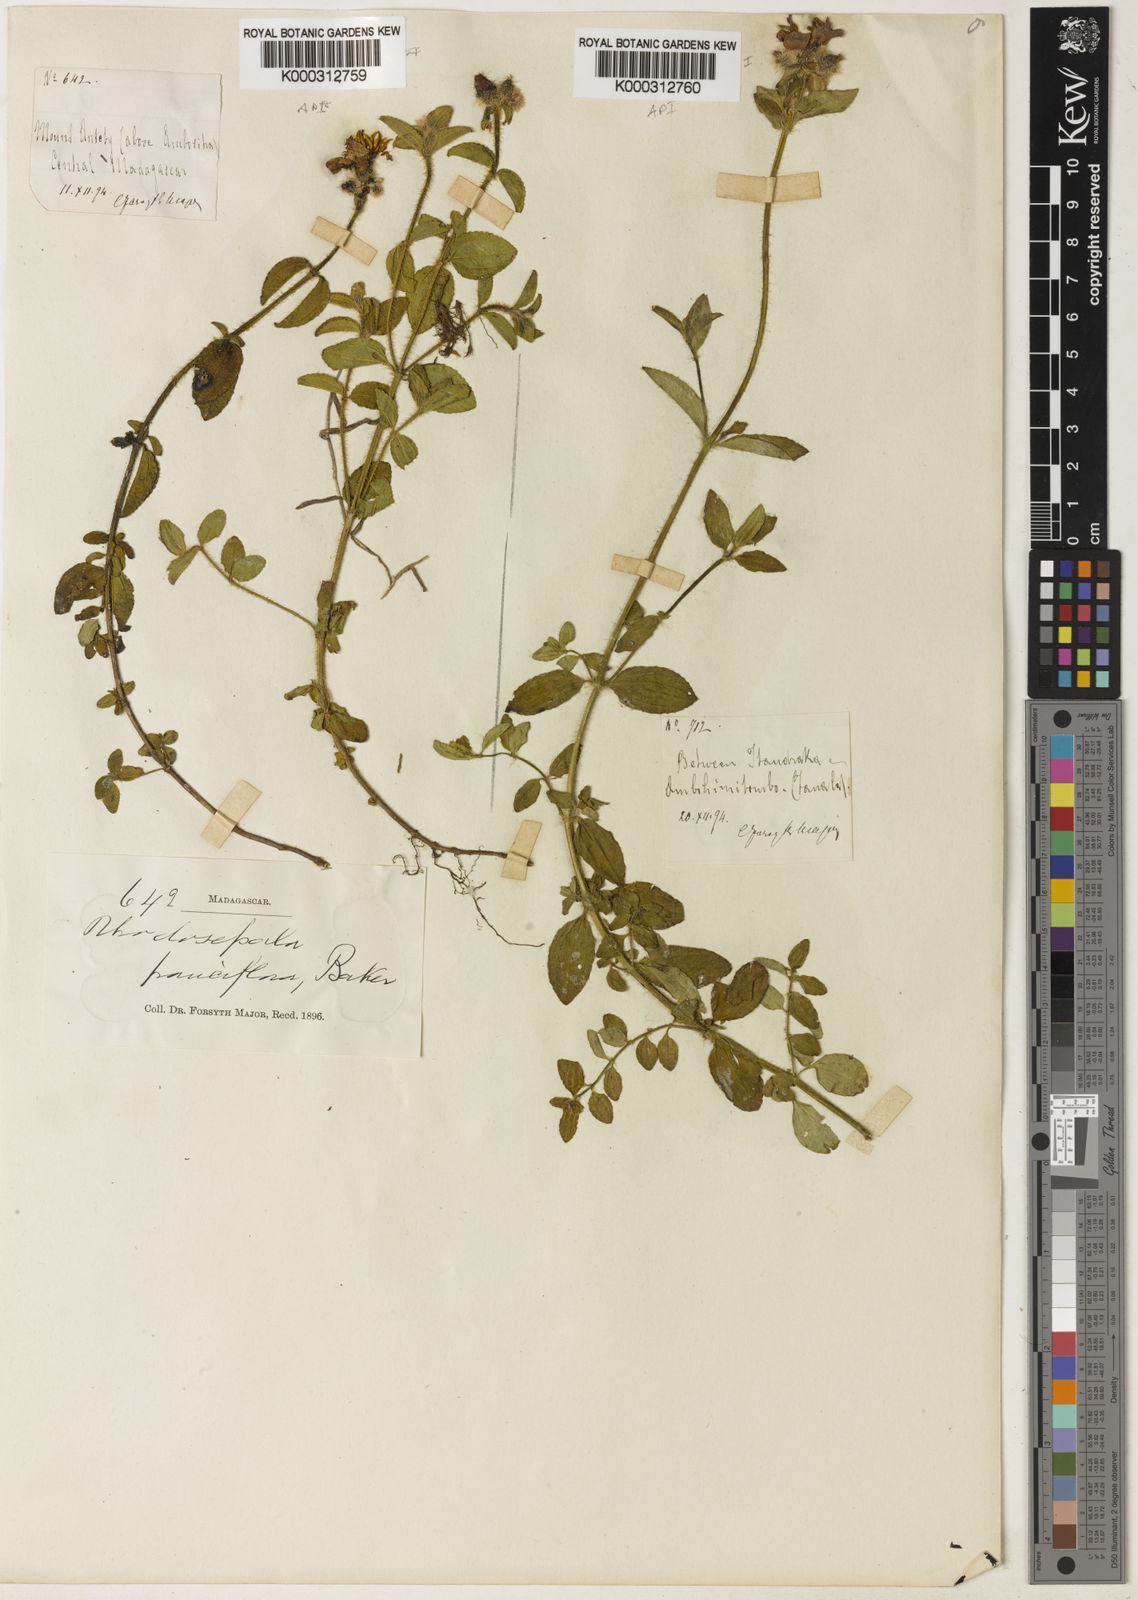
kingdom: Plantae
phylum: Tracheophyta
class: Magnoliopsida
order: Myrtales
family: Melastomataceae
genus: Dissotis
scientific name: Dissotis
